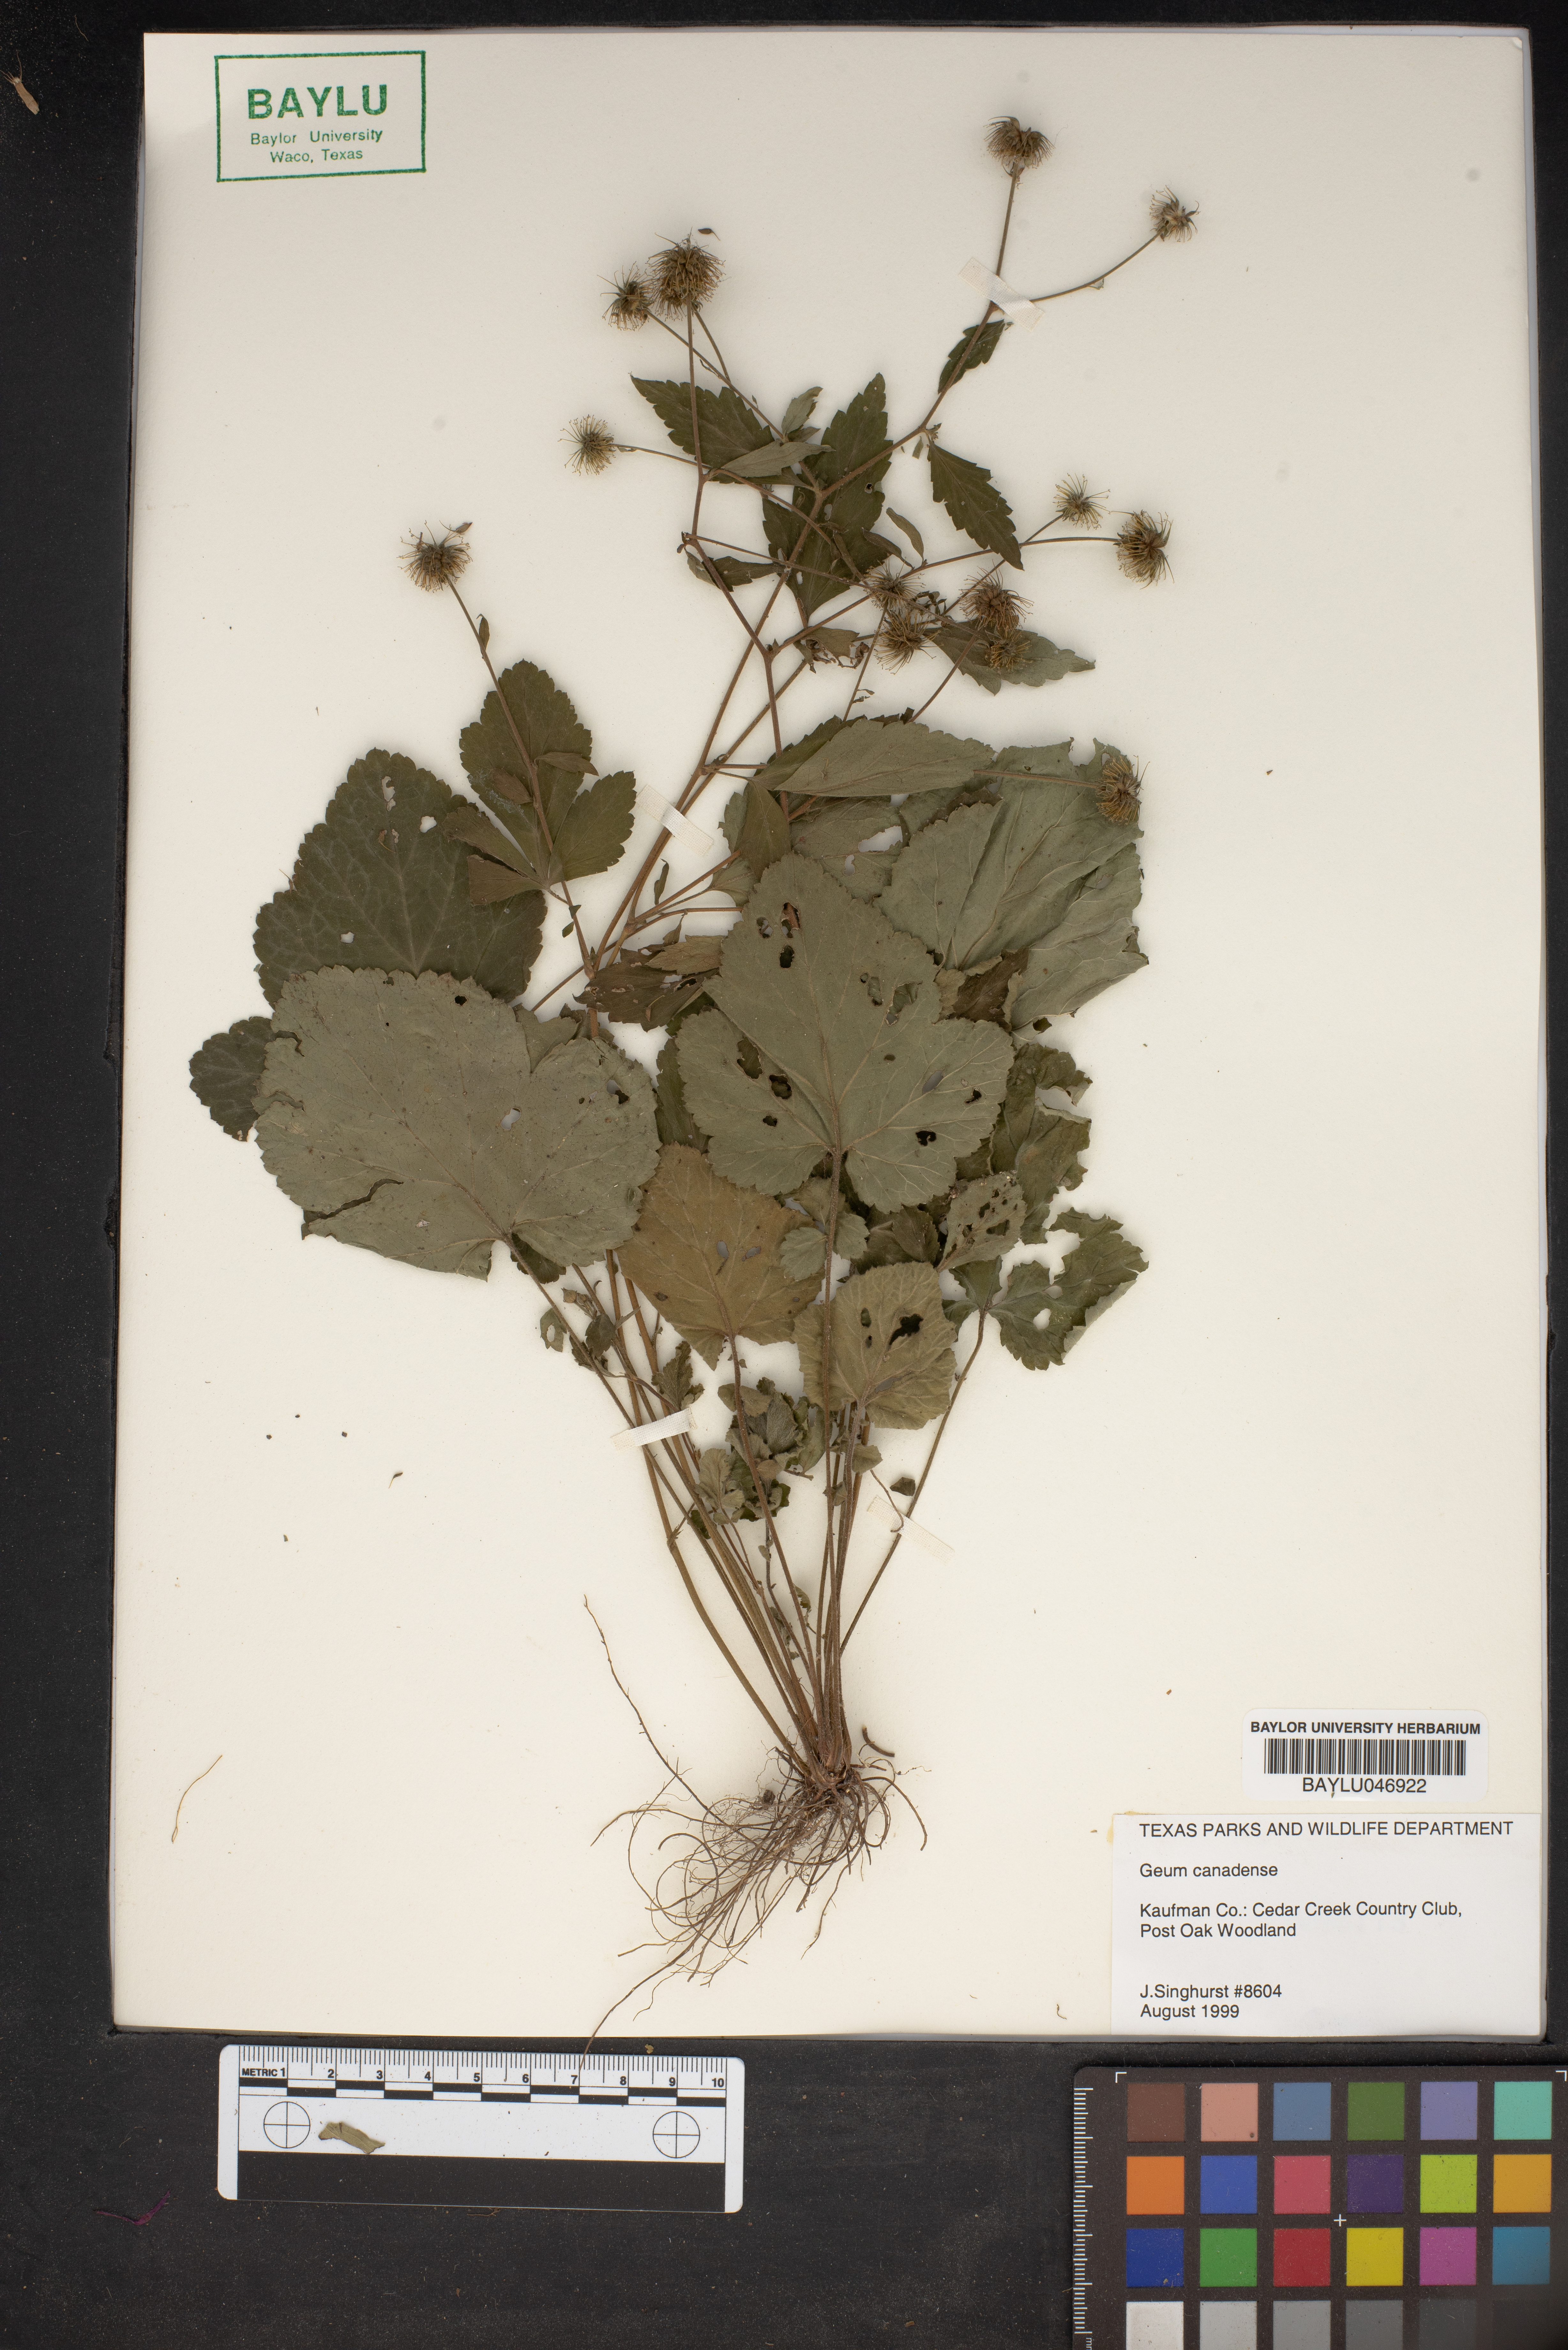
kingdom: Plantae
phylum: Tracheophyta
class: Magnoliopsida
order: Rosales
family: Rosaceae
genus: Geum
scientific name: Geum canadense
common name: White avens
